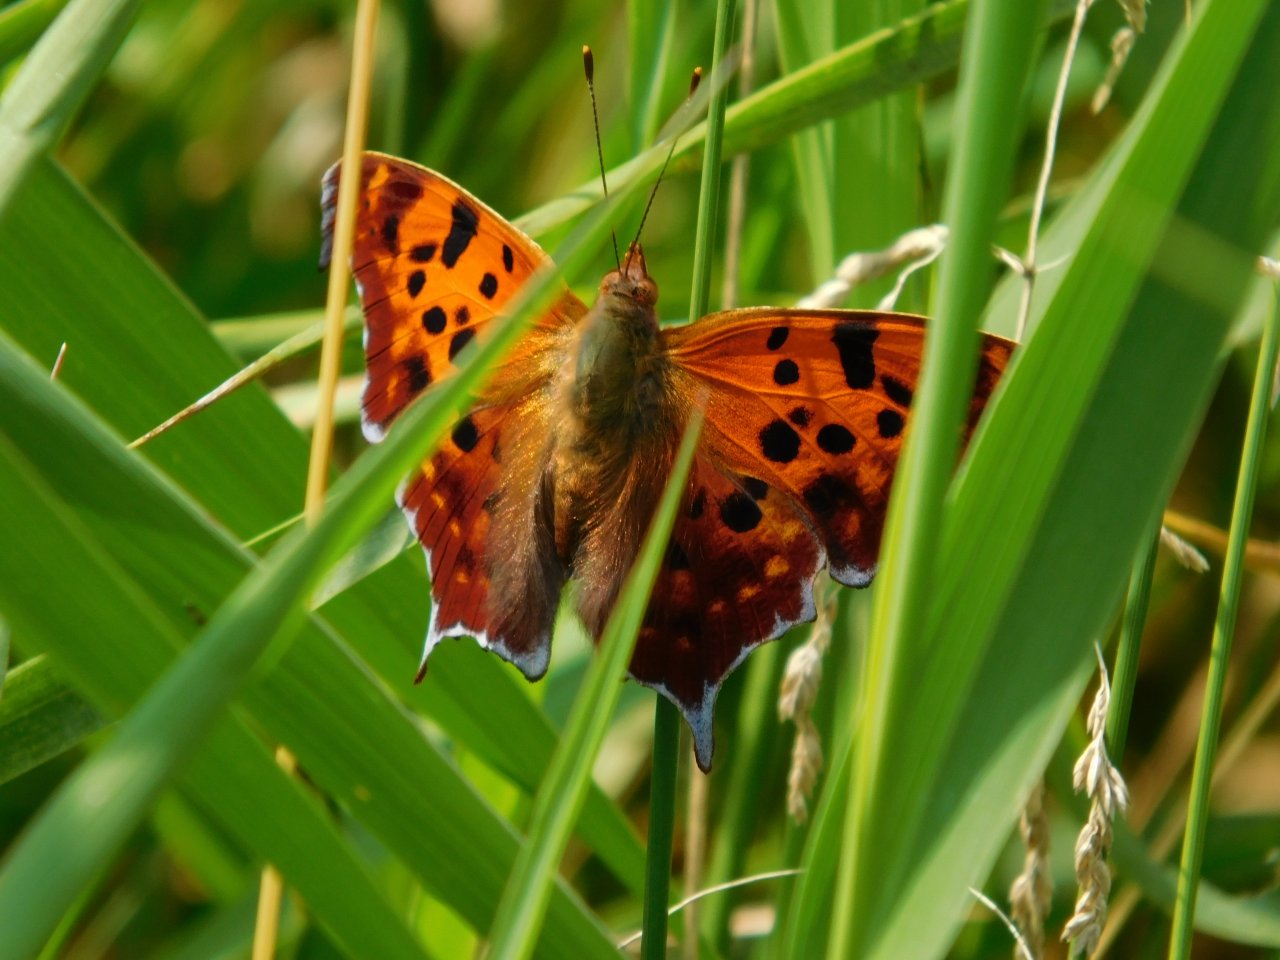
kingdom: Animalia
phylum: Arthropoda
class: Insecta
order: Lepidoptera
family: Nymphalidae
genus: Polygonia
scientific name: Polygonia interrogationis
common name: Question Mark
